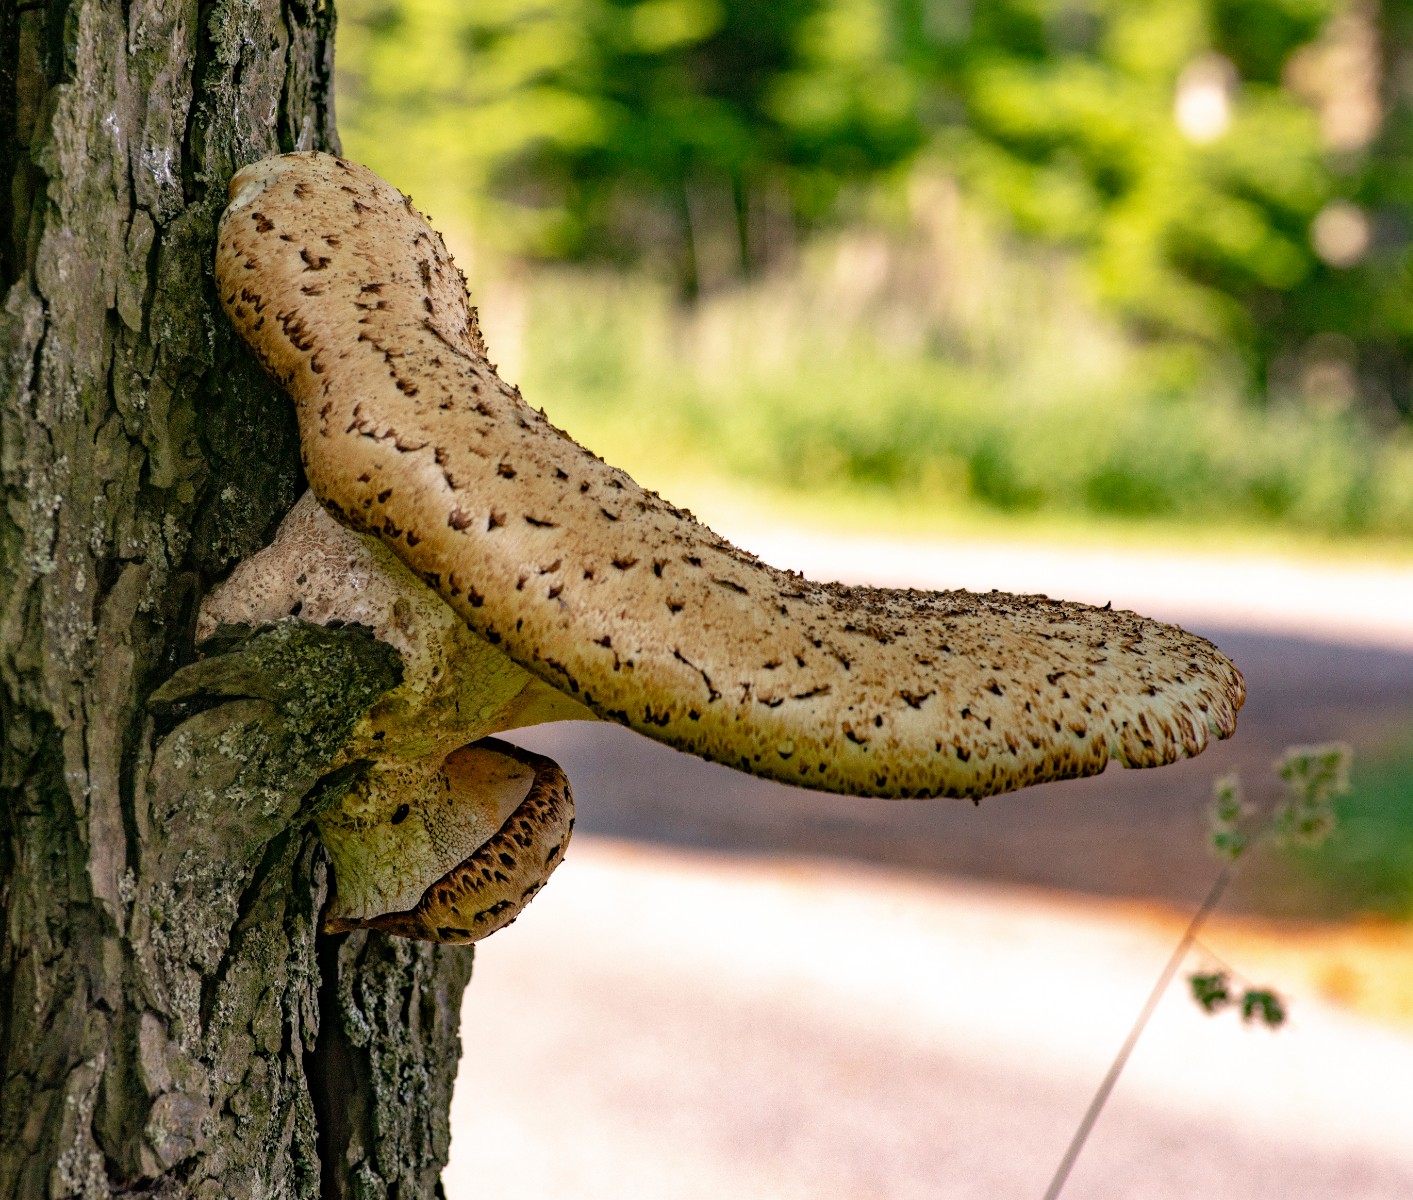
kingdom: Fungi
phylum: Basidiomycota
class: Agaricomycetes
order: Polyporales
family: Polyporaceae
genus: Cerioporus
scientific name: Cerioporus squamosus
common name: skællet stilkporesvamp
